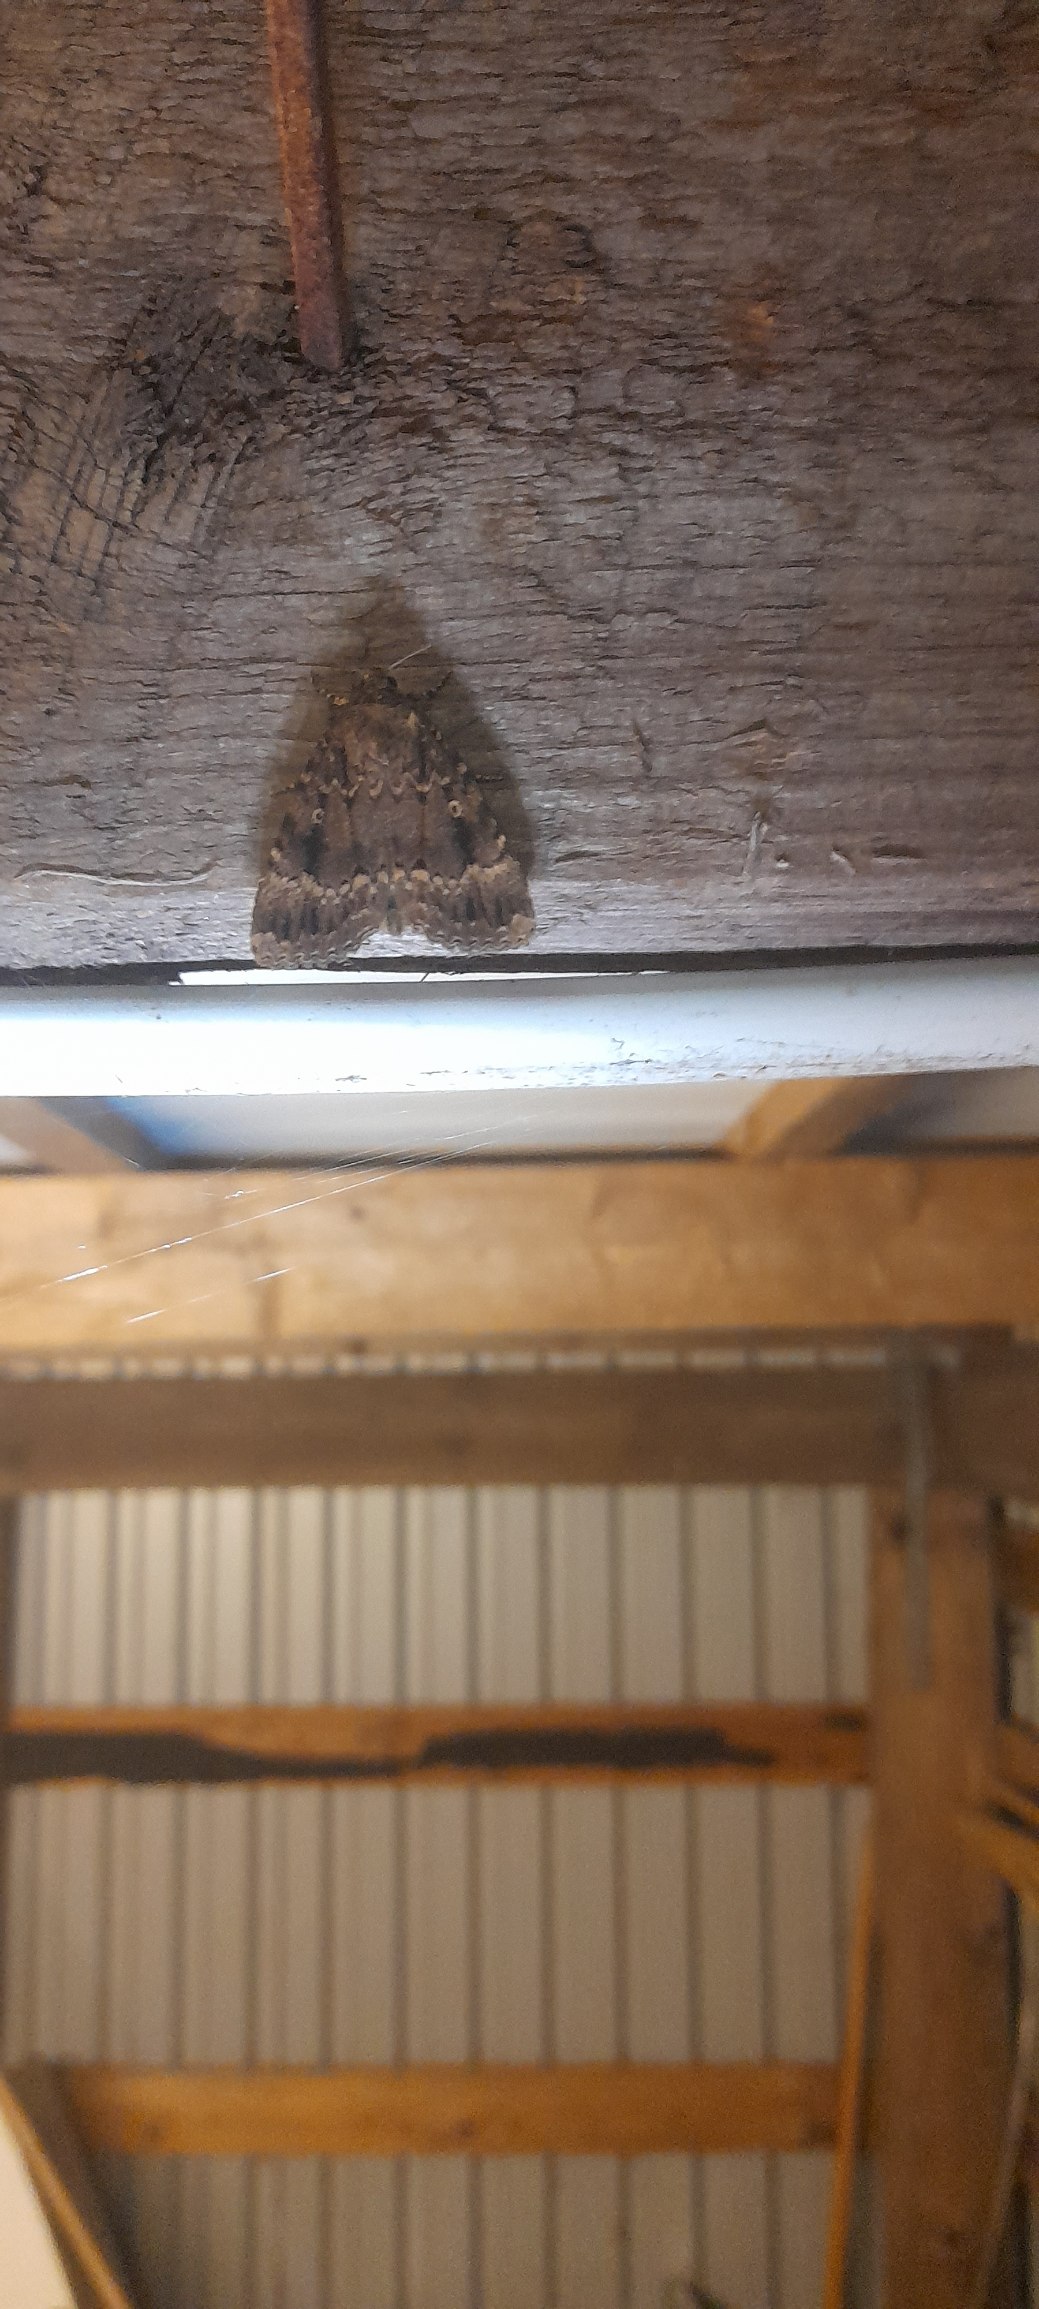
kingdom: Animalia
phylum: Arthropoda
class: Insecta
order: Lepidoptera
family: Noctuidae
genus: Amphipyra
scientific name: Amphipyra pyramidea
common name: Pyramideugle
